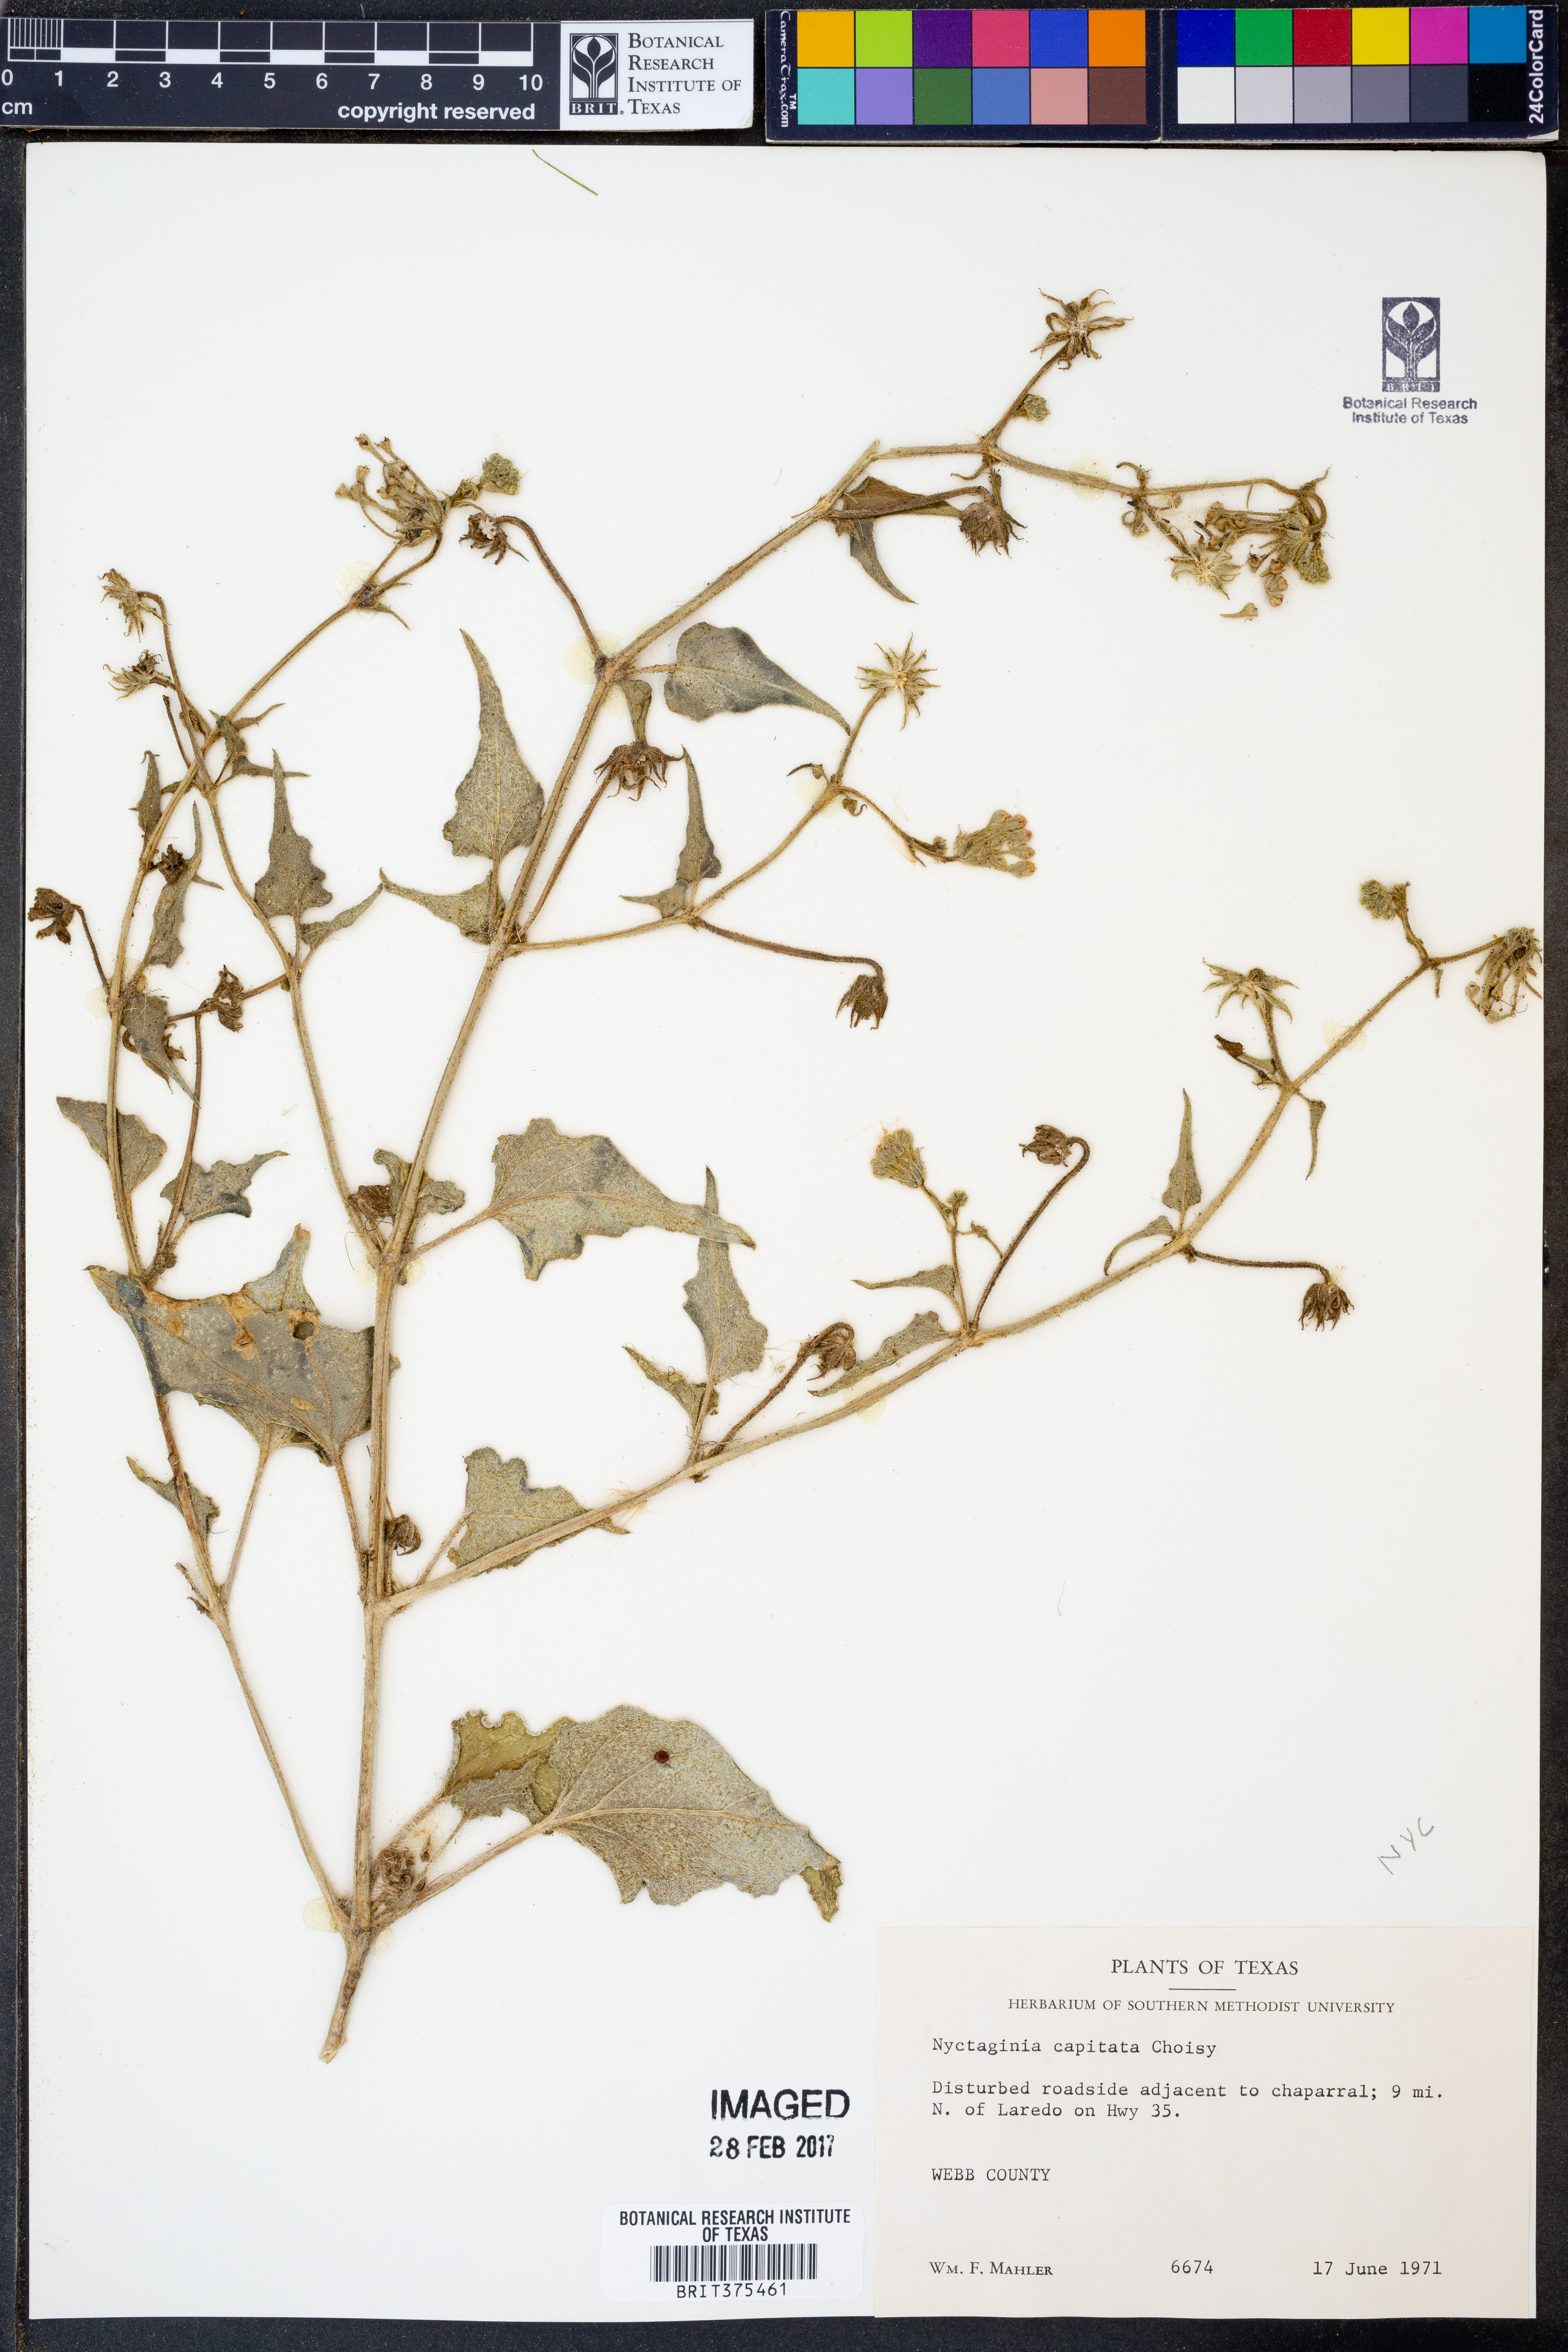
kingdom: Plantae
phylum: Tracheophyta
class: Magnoliopsida
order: Caryophyllales
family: Nyctaginaceae
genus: Nyctaginia
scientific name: Nyctaginia capitata
